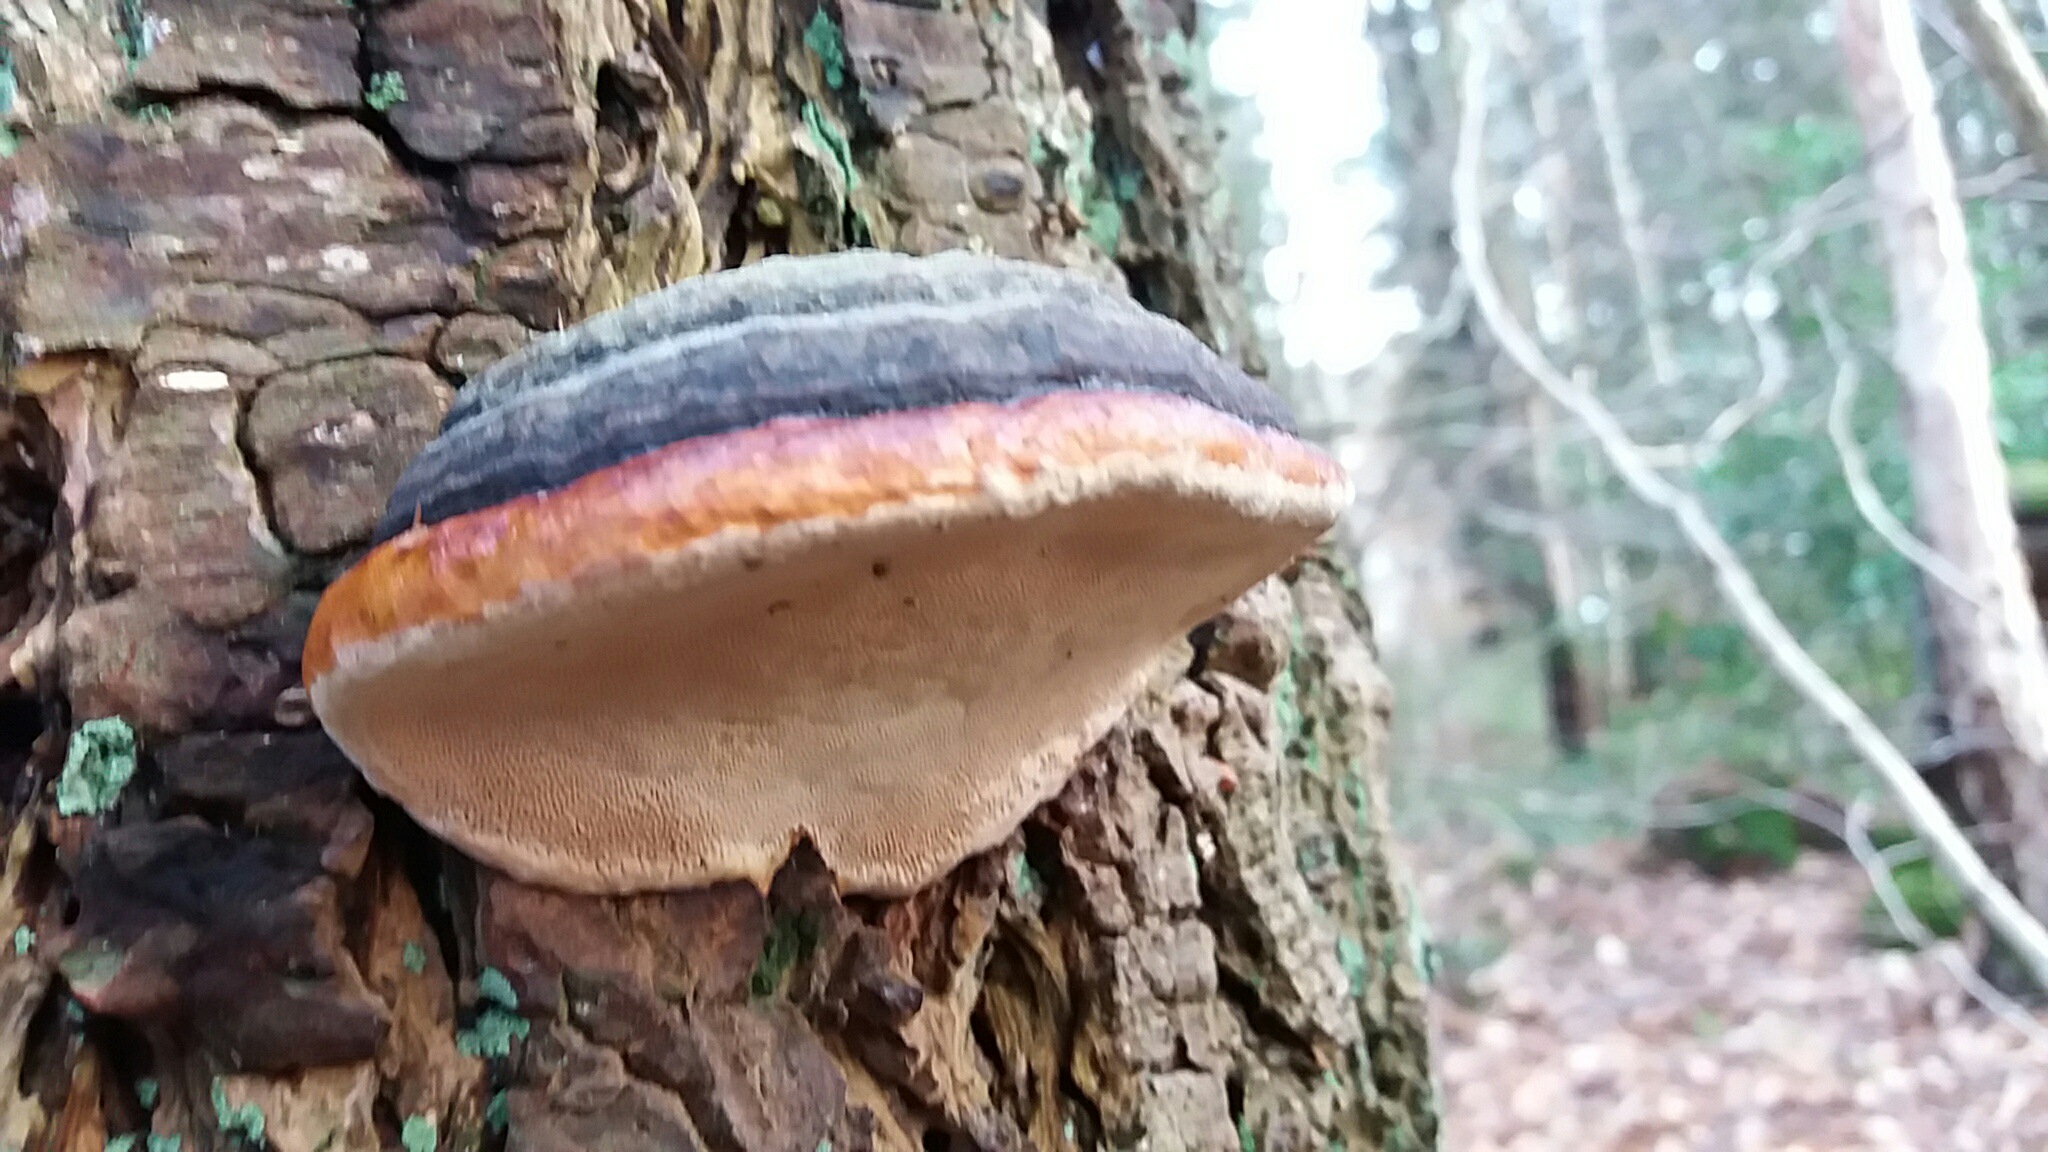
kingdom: Fungi
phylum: Basidiomycota
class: Agaricomycetes
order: Polyporales
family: Fomitopsidaceae
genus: Fomitopsis
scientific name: Fomitopsis pinicola
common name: randbæltet hovporesvamp
